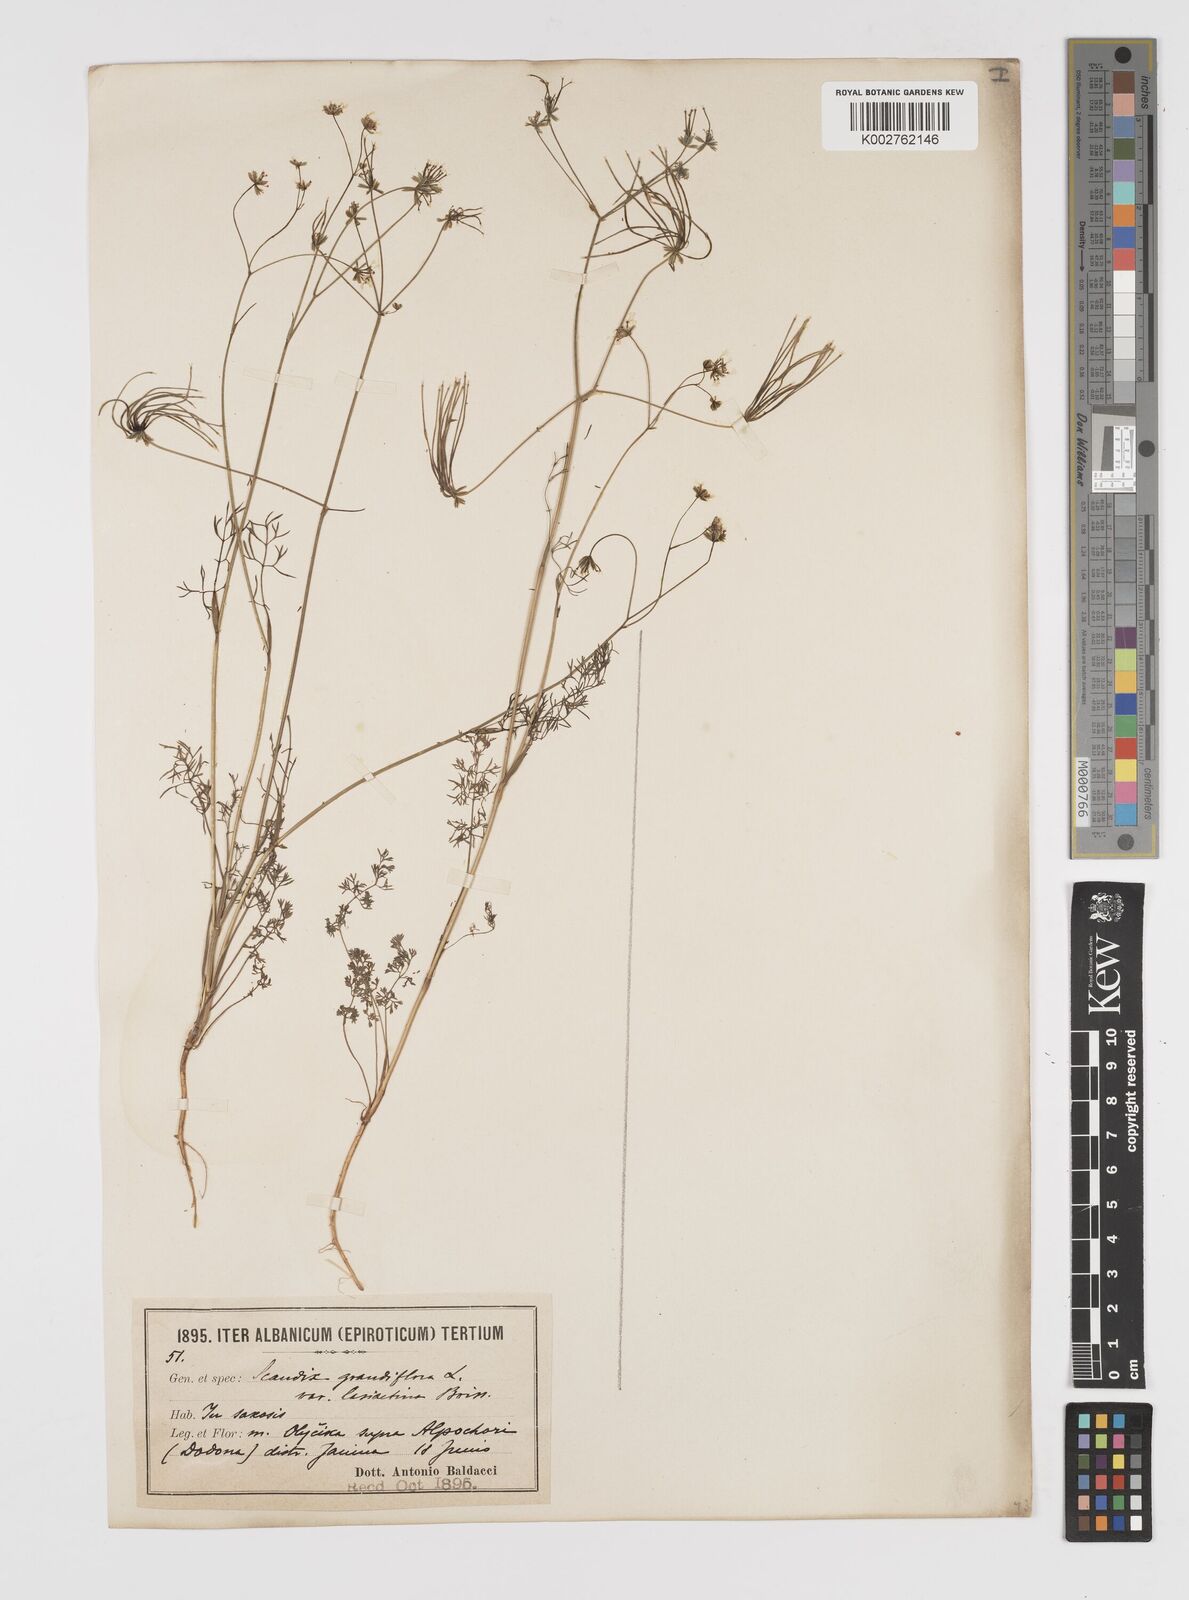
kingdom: Plantae
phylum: Tracheophyta
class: Magnoliopsida
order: Apiales
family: Apiaceae
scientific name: Apiaceae
